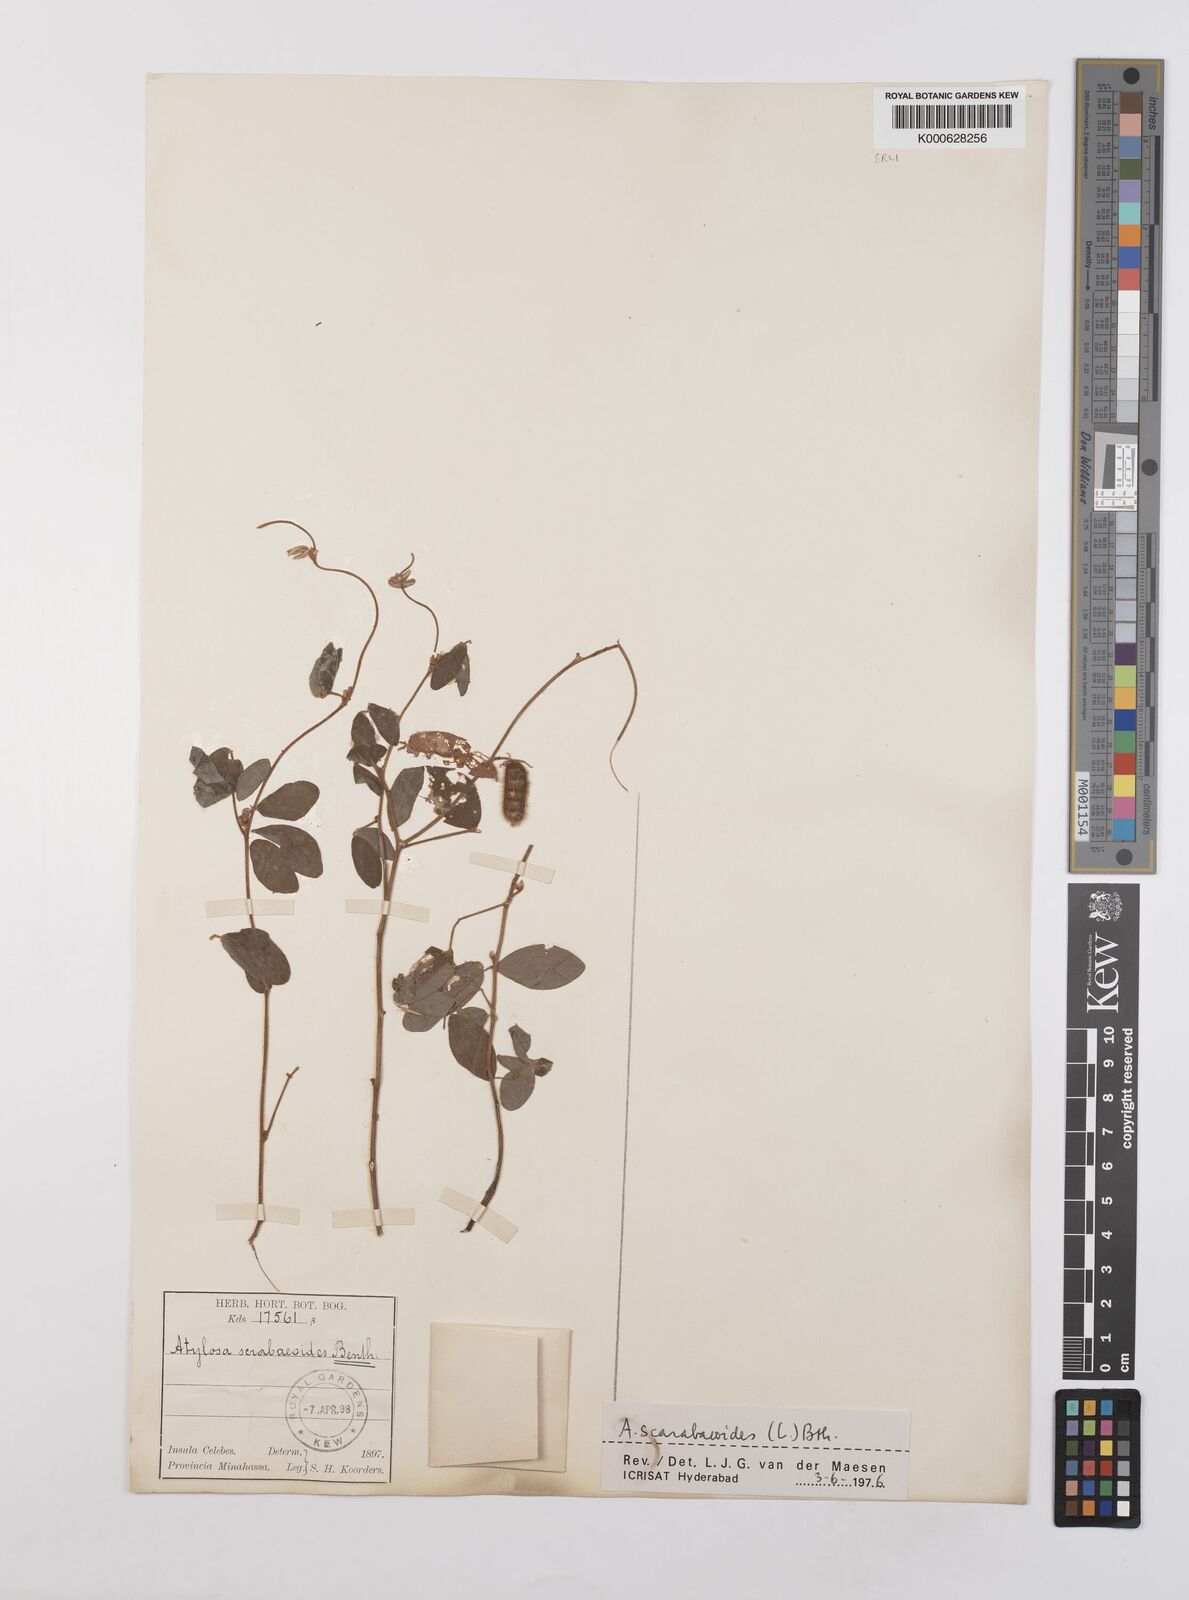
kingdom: Plantae
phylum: Tracheophyta
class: Magnoliopsida
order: Fabales
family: Fabaceae
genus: Cajanus
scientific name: Cajanus scarabaeoides
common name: Showy pigeonpea
